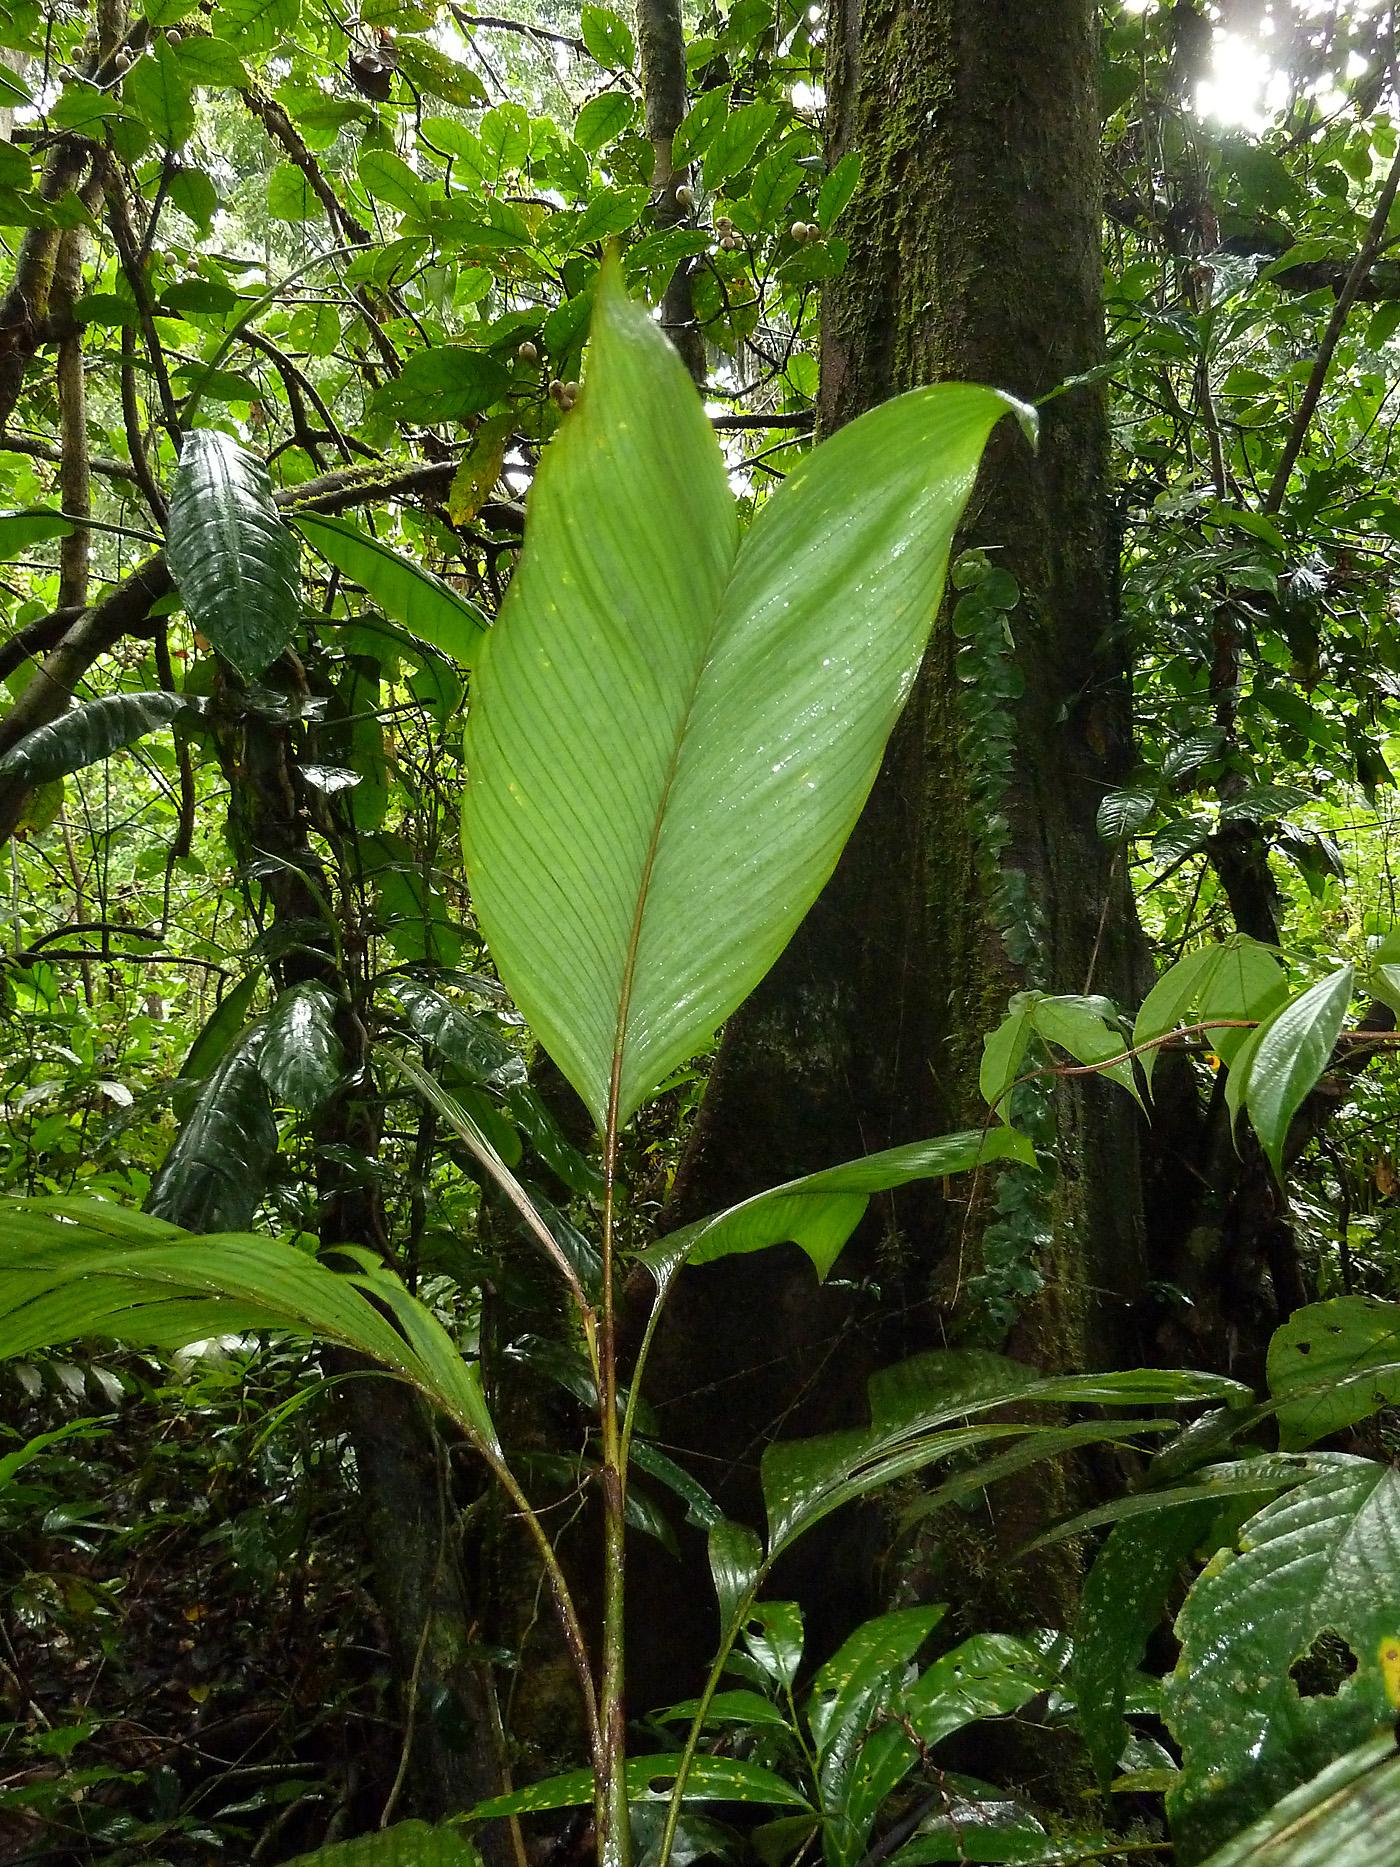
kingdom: Plantae
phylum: Tracheophyta
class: Liliopsida
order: Arecales
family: Arecaceae
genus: Geonoma
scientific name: Geonoma stricta
